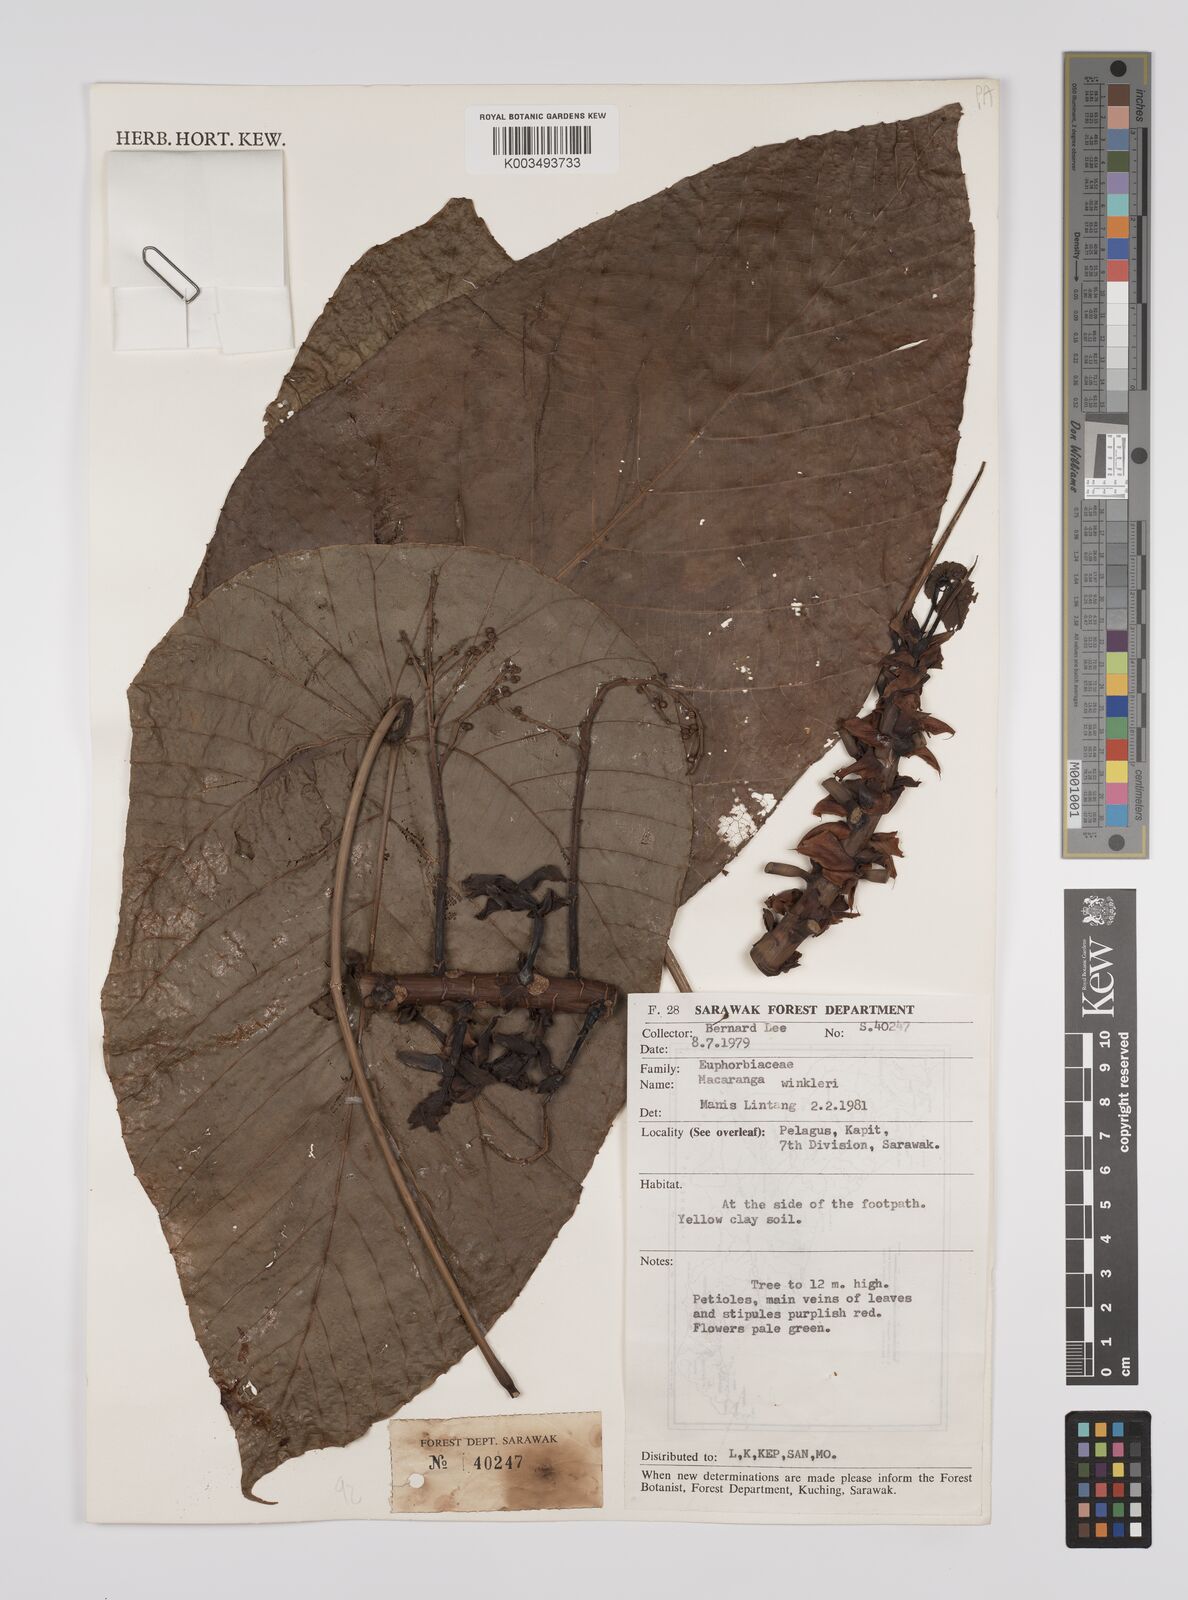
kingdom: Plantae
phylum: Tracheophyta
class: Magnoliopsida
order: Malpighiales
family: Euphorbiaceae
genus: Macaranga
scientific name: Macaranga winkleri
